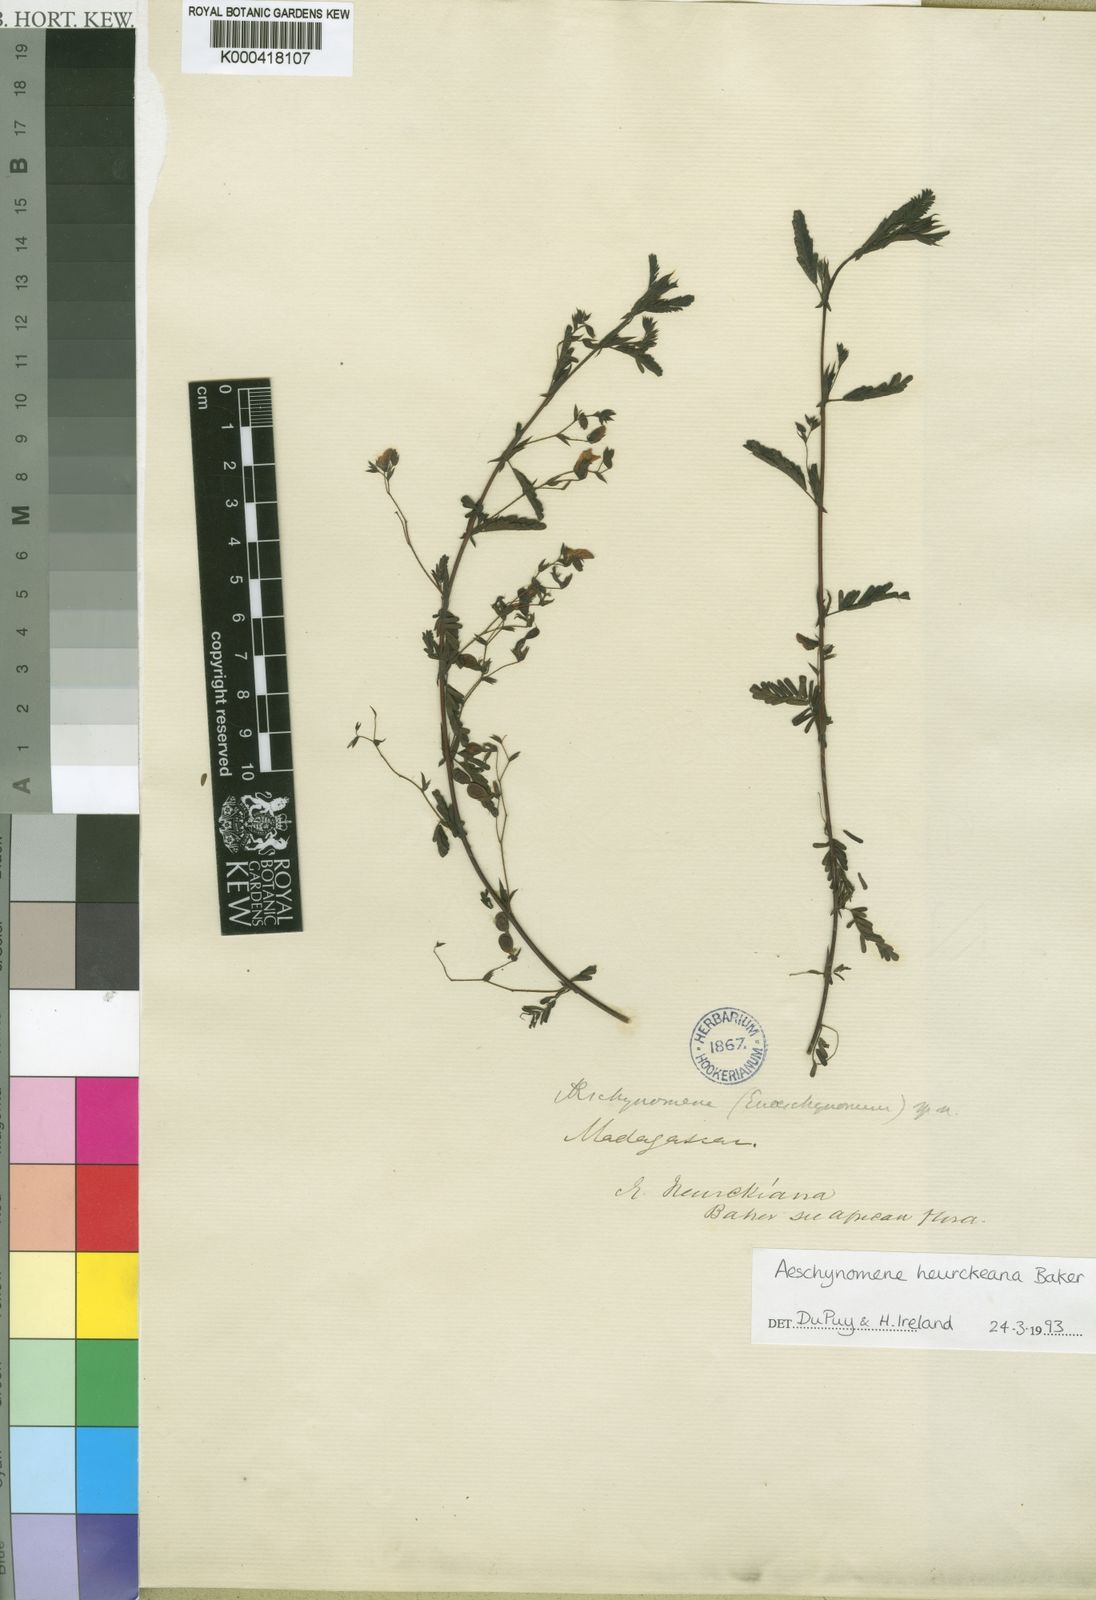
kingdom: Plantae
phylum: Tracheophyta
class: Magnoliopsida
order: Fabales
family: Fabaceae
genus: Aeschynomene
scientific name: Aeschynomene heurckeana
